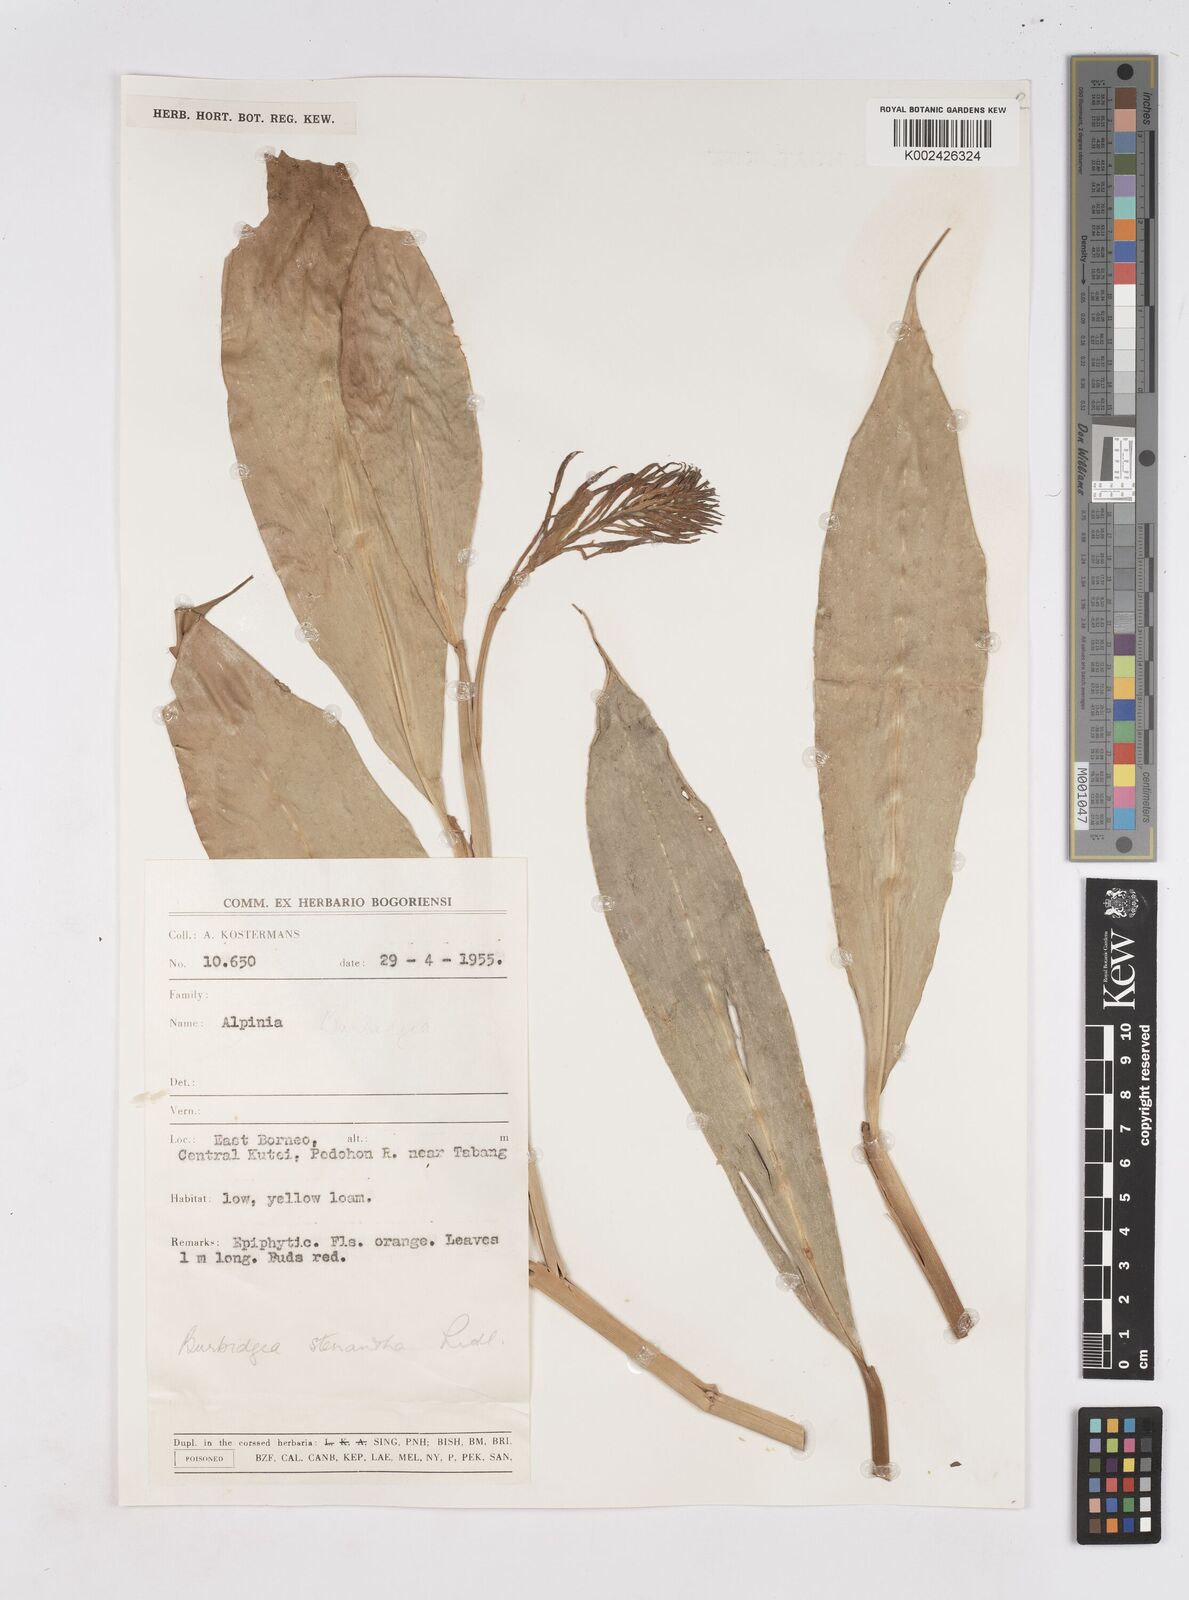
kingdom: Plantae
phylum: Tracheophyta
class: Liliopsida
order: Zingiberales
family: Zingiberaceae
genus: Burbidgea
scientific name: Burbidgea stenantha
